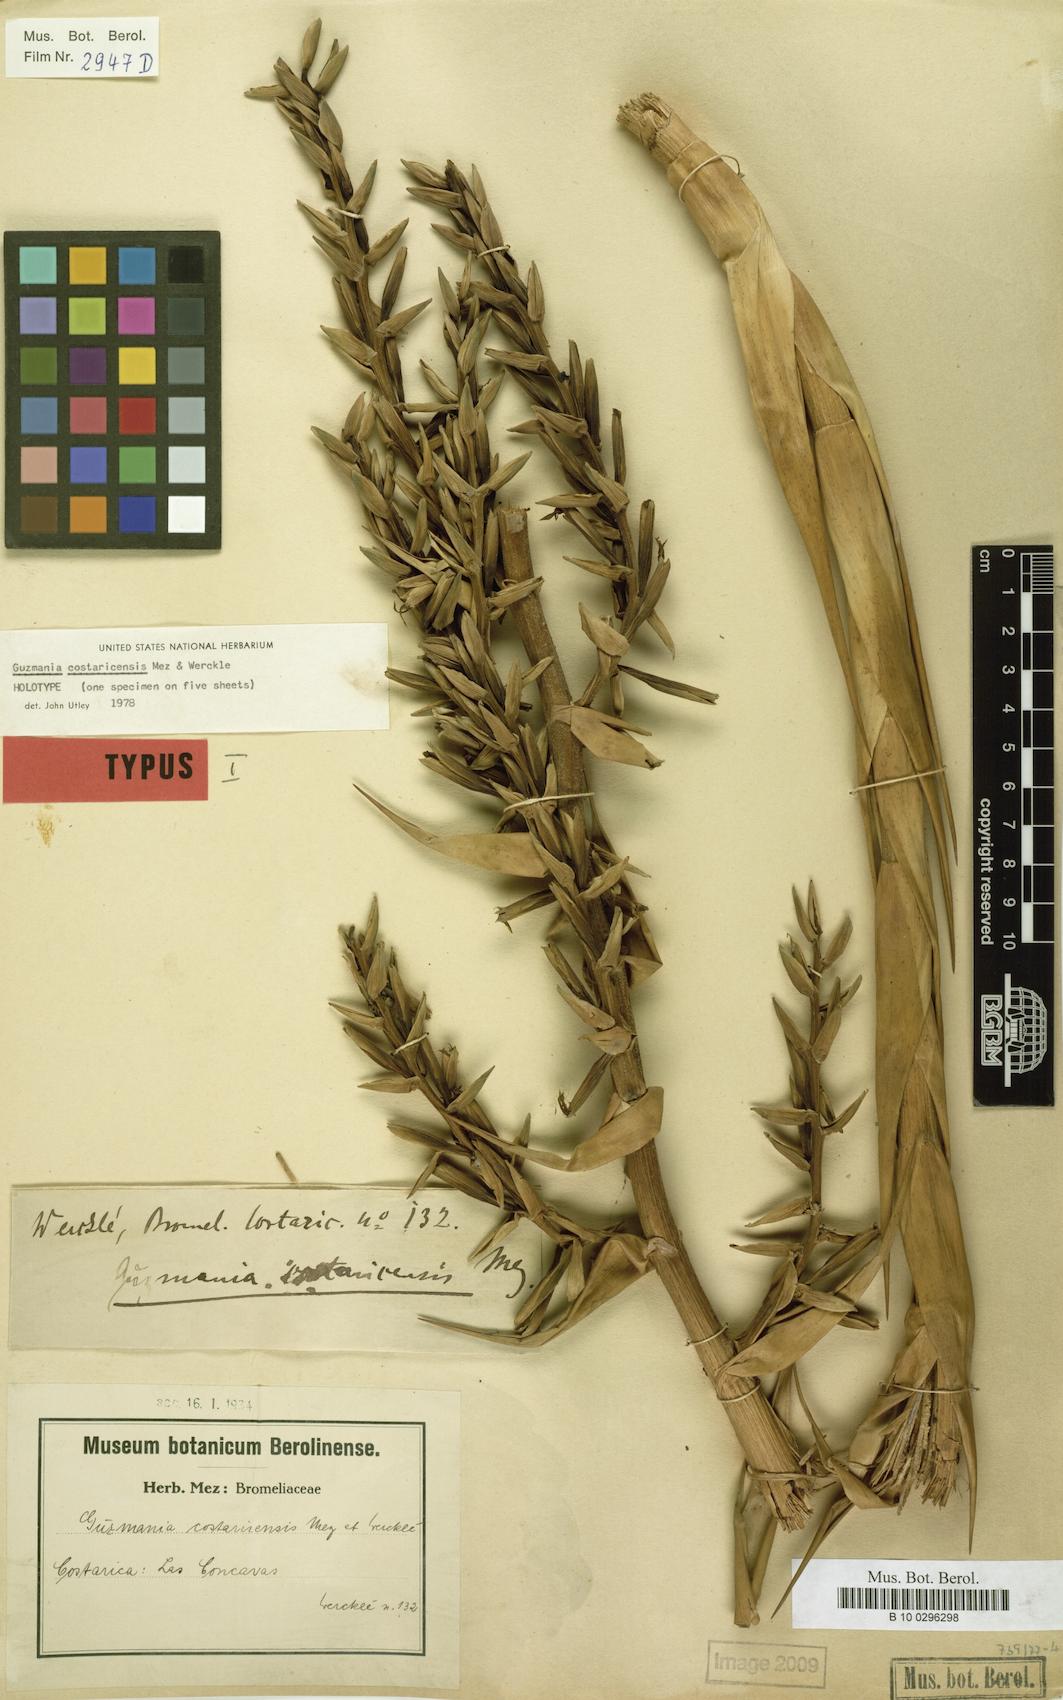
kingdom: Plantae
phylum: Tracheophyta
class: Liliopsida
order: Poales
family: Bromeliaceae
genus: Guzmania
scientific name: Guzmania condensata
